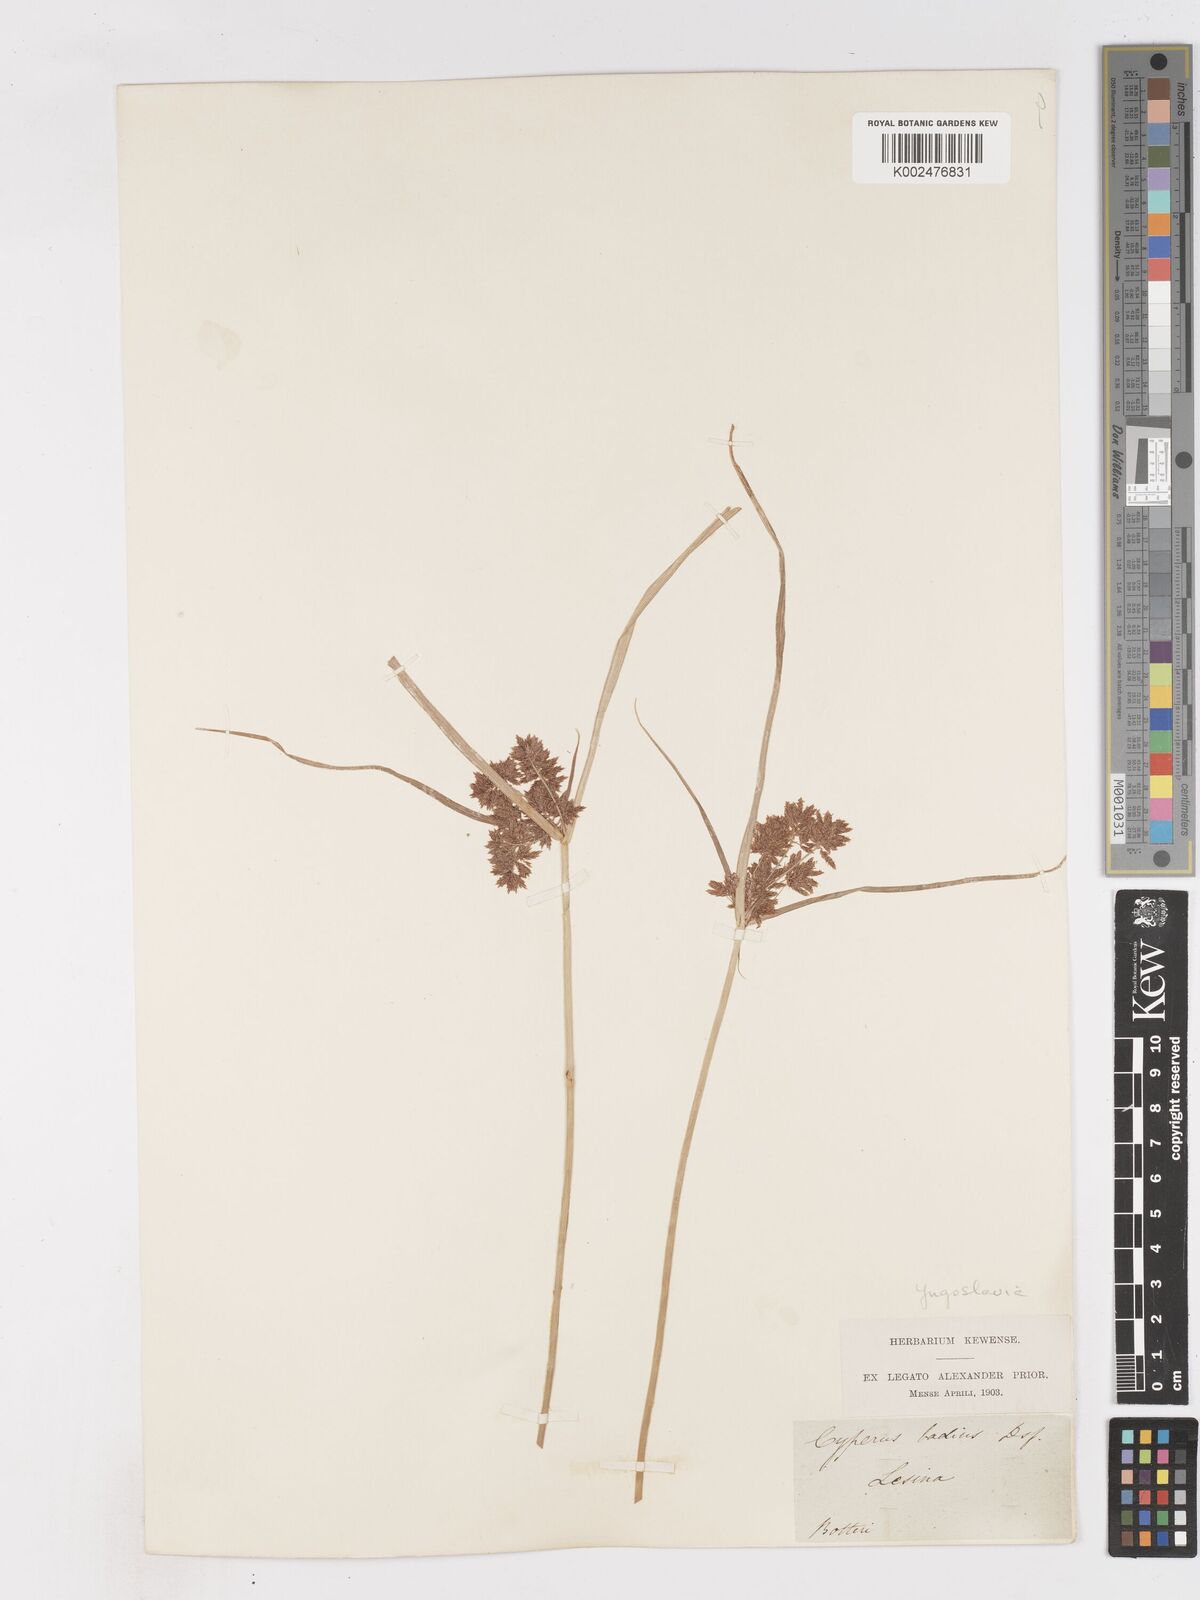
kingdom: Plantae
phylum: Tracheophyta
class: Liliopsida
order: Poales
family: Cyperaceae
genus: Cyperus
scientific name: Cyperus longus
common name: Galingale
